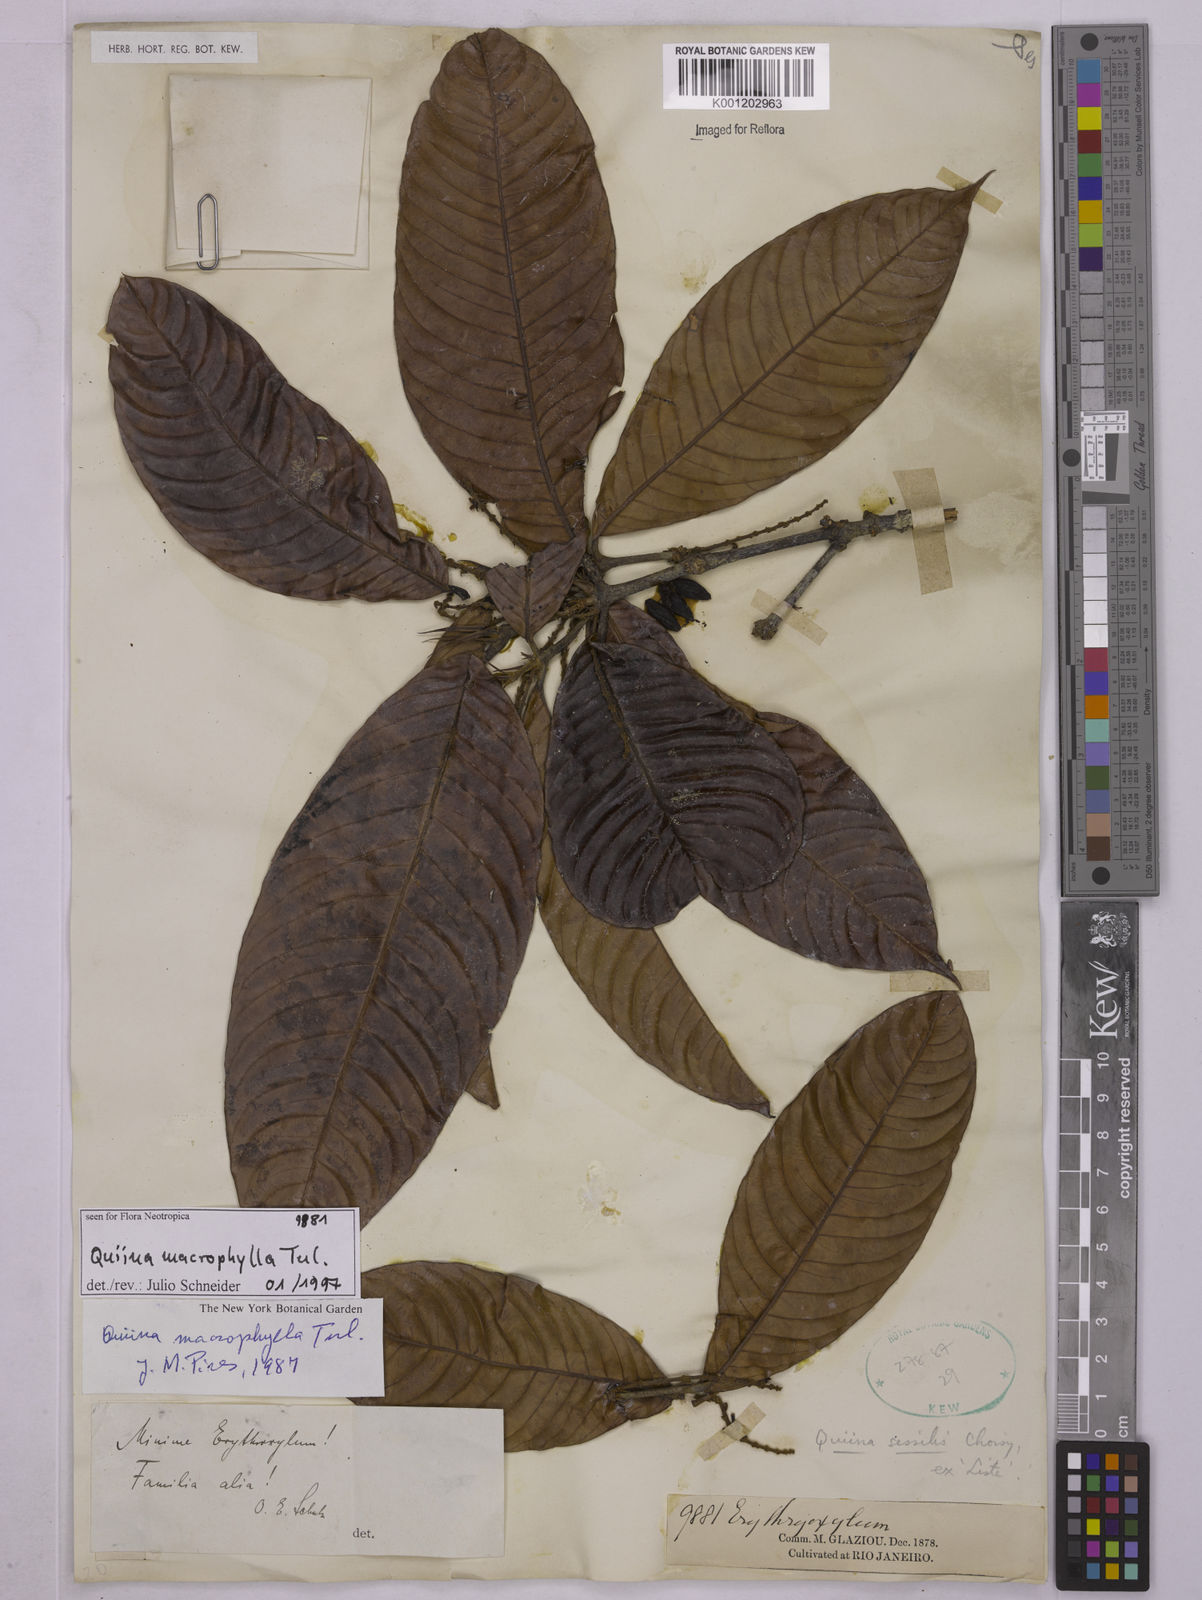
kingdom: Plantae
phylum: Tracheophyta
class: Magnoliopsida
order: Malpighiales
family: Quiinaceae
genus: Quiina
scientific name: Quiina macrophylla
